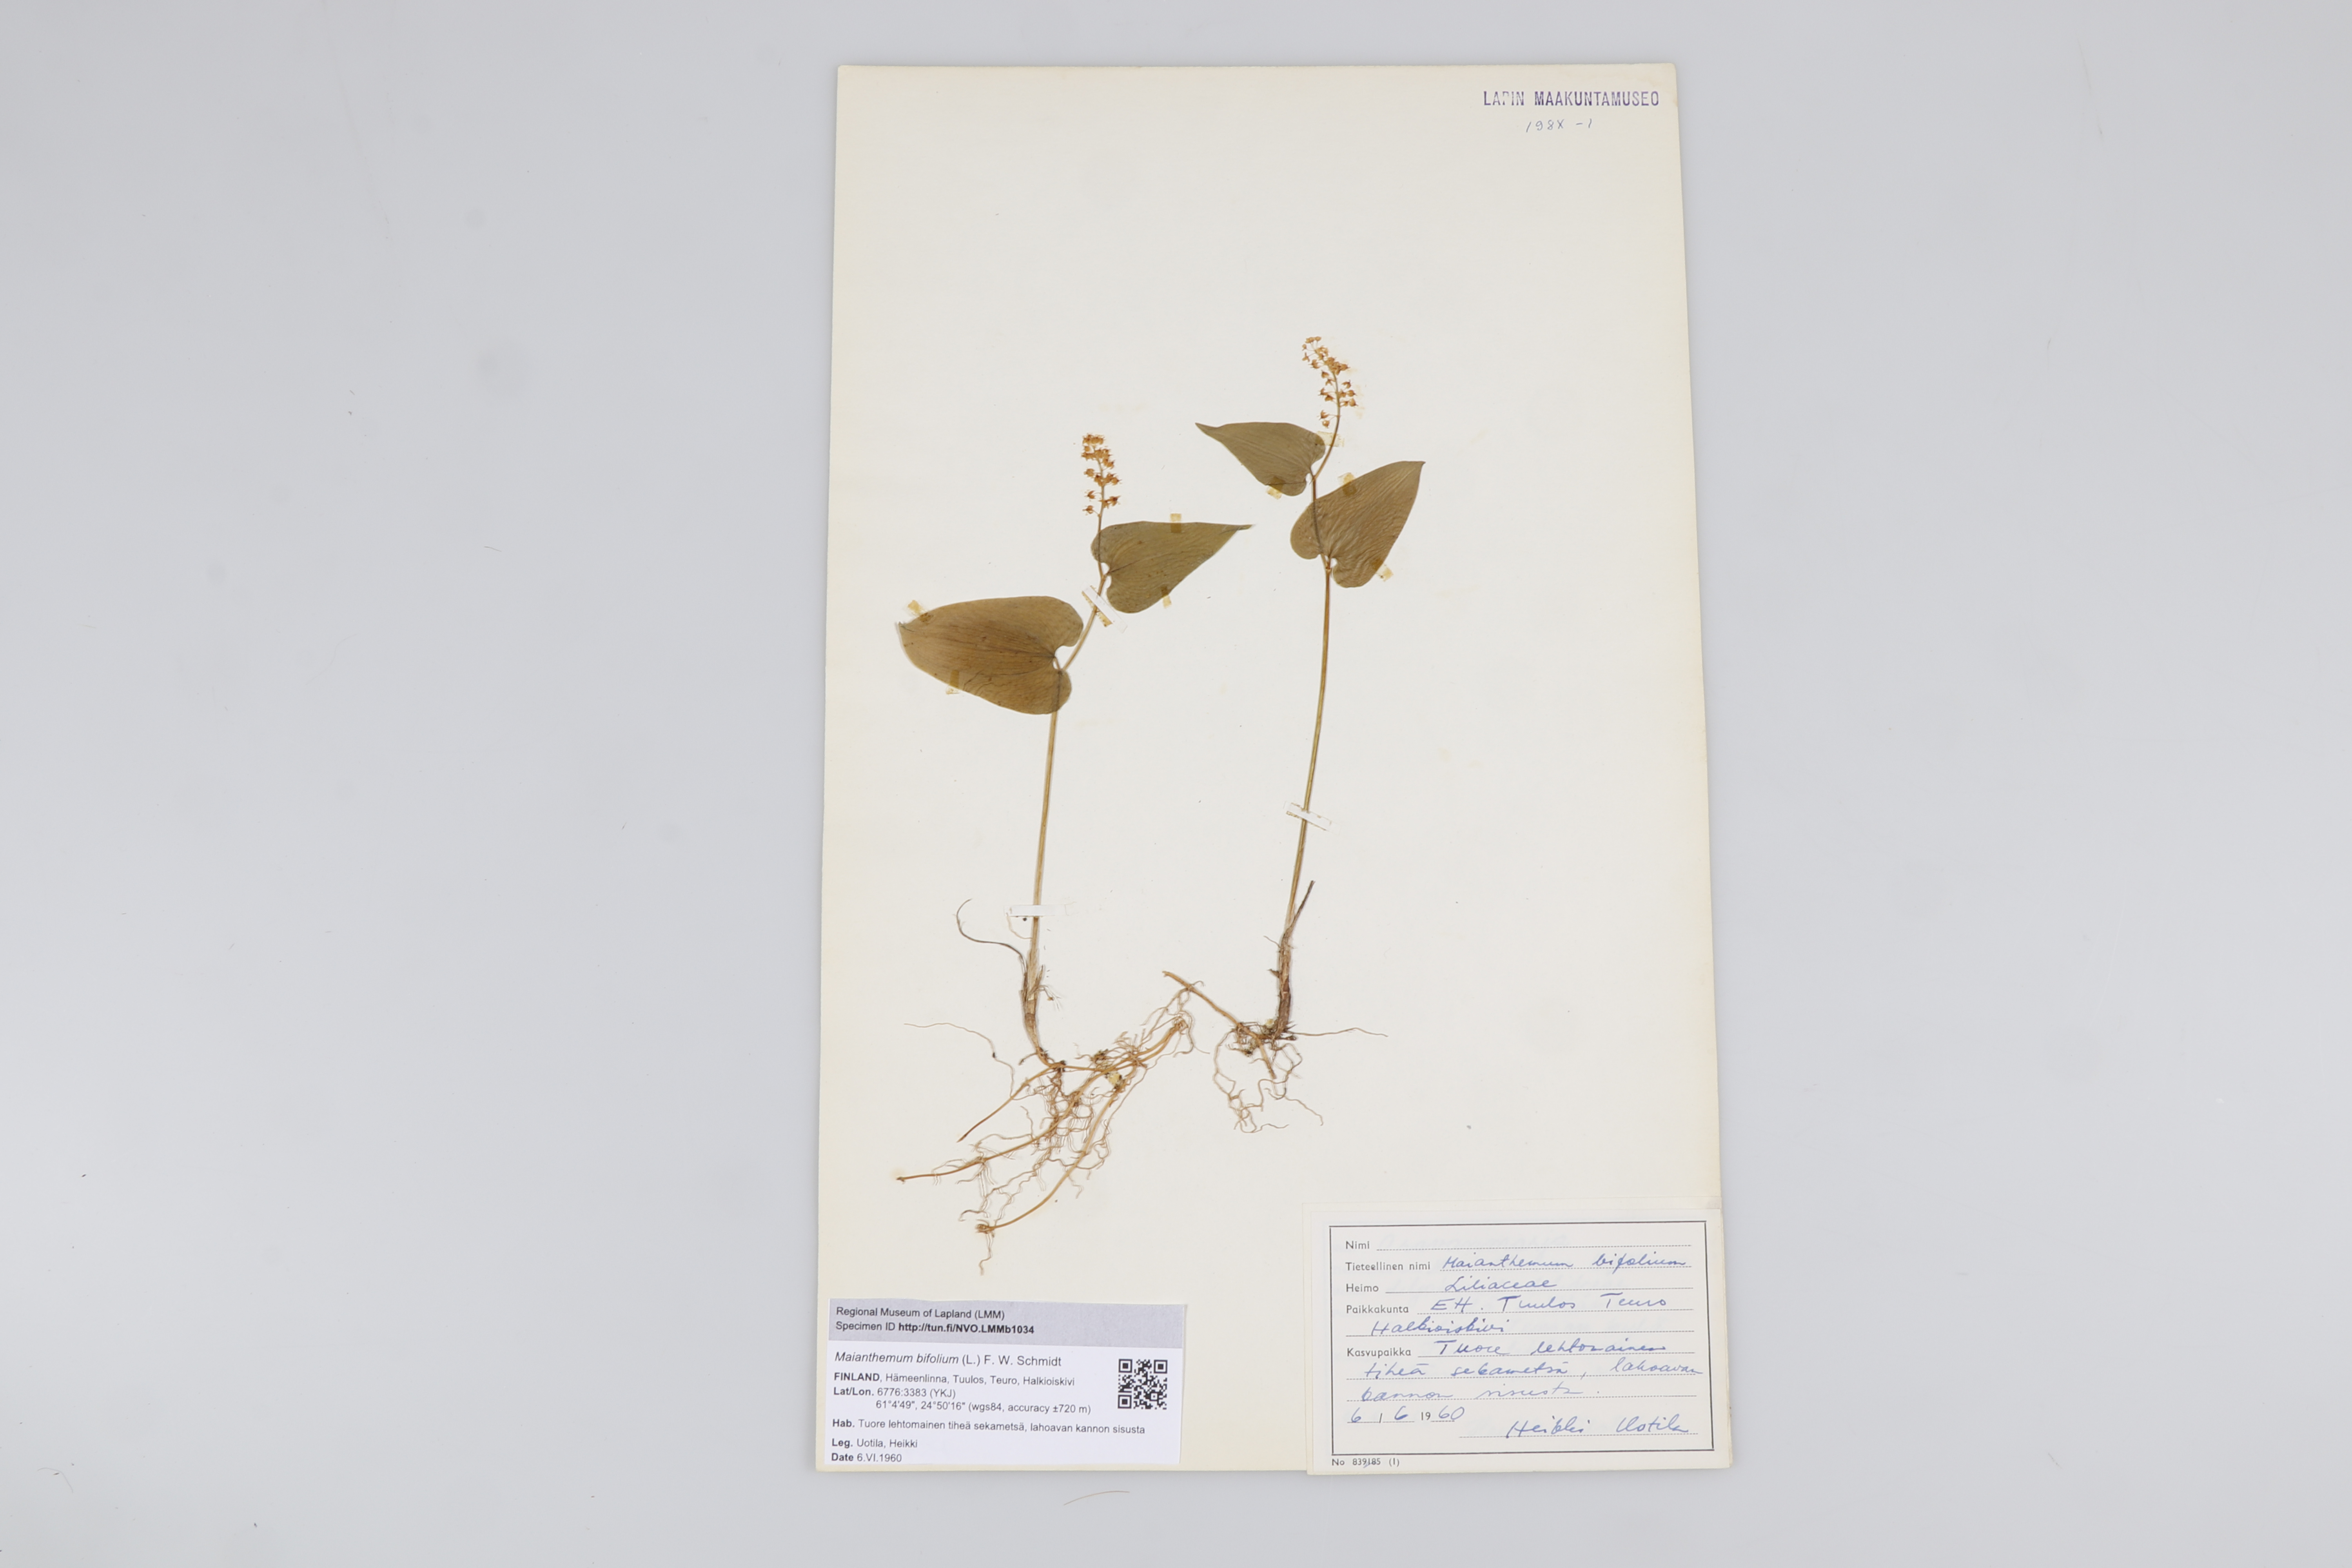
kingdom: Plantae
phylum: Tracheophyta
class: Liliopsida
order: Asparagales
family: Asparagaceae
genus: Maianthemum
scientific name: Maianthemum bifolium
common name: May lily
